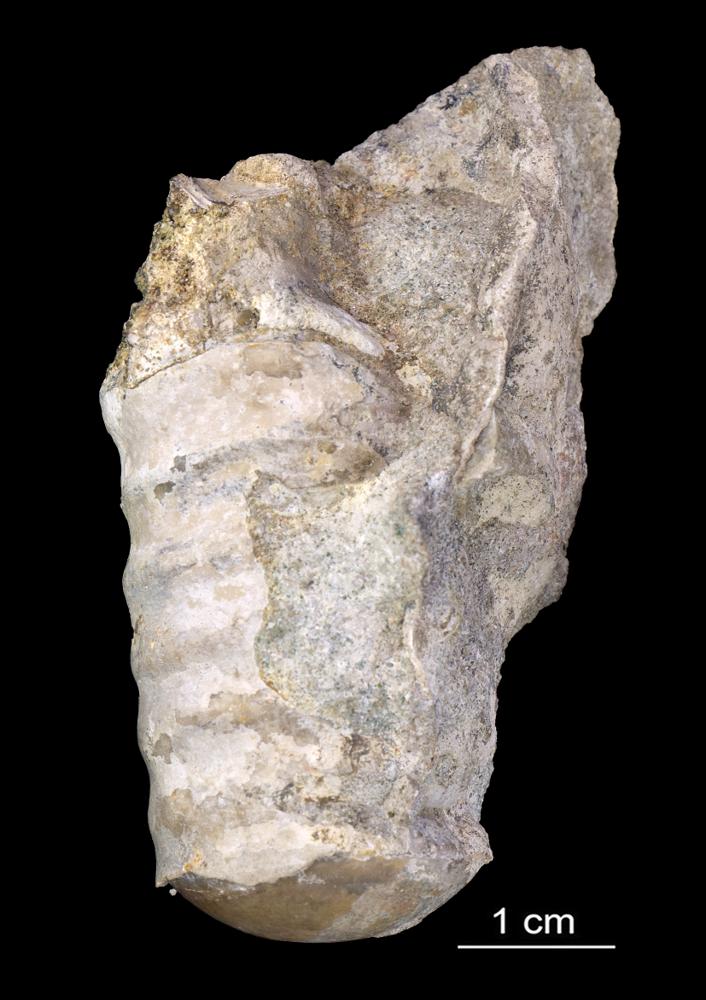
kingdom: Animalia
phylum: Mollusca
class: Cephalopoda
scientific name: Cephalopoda
